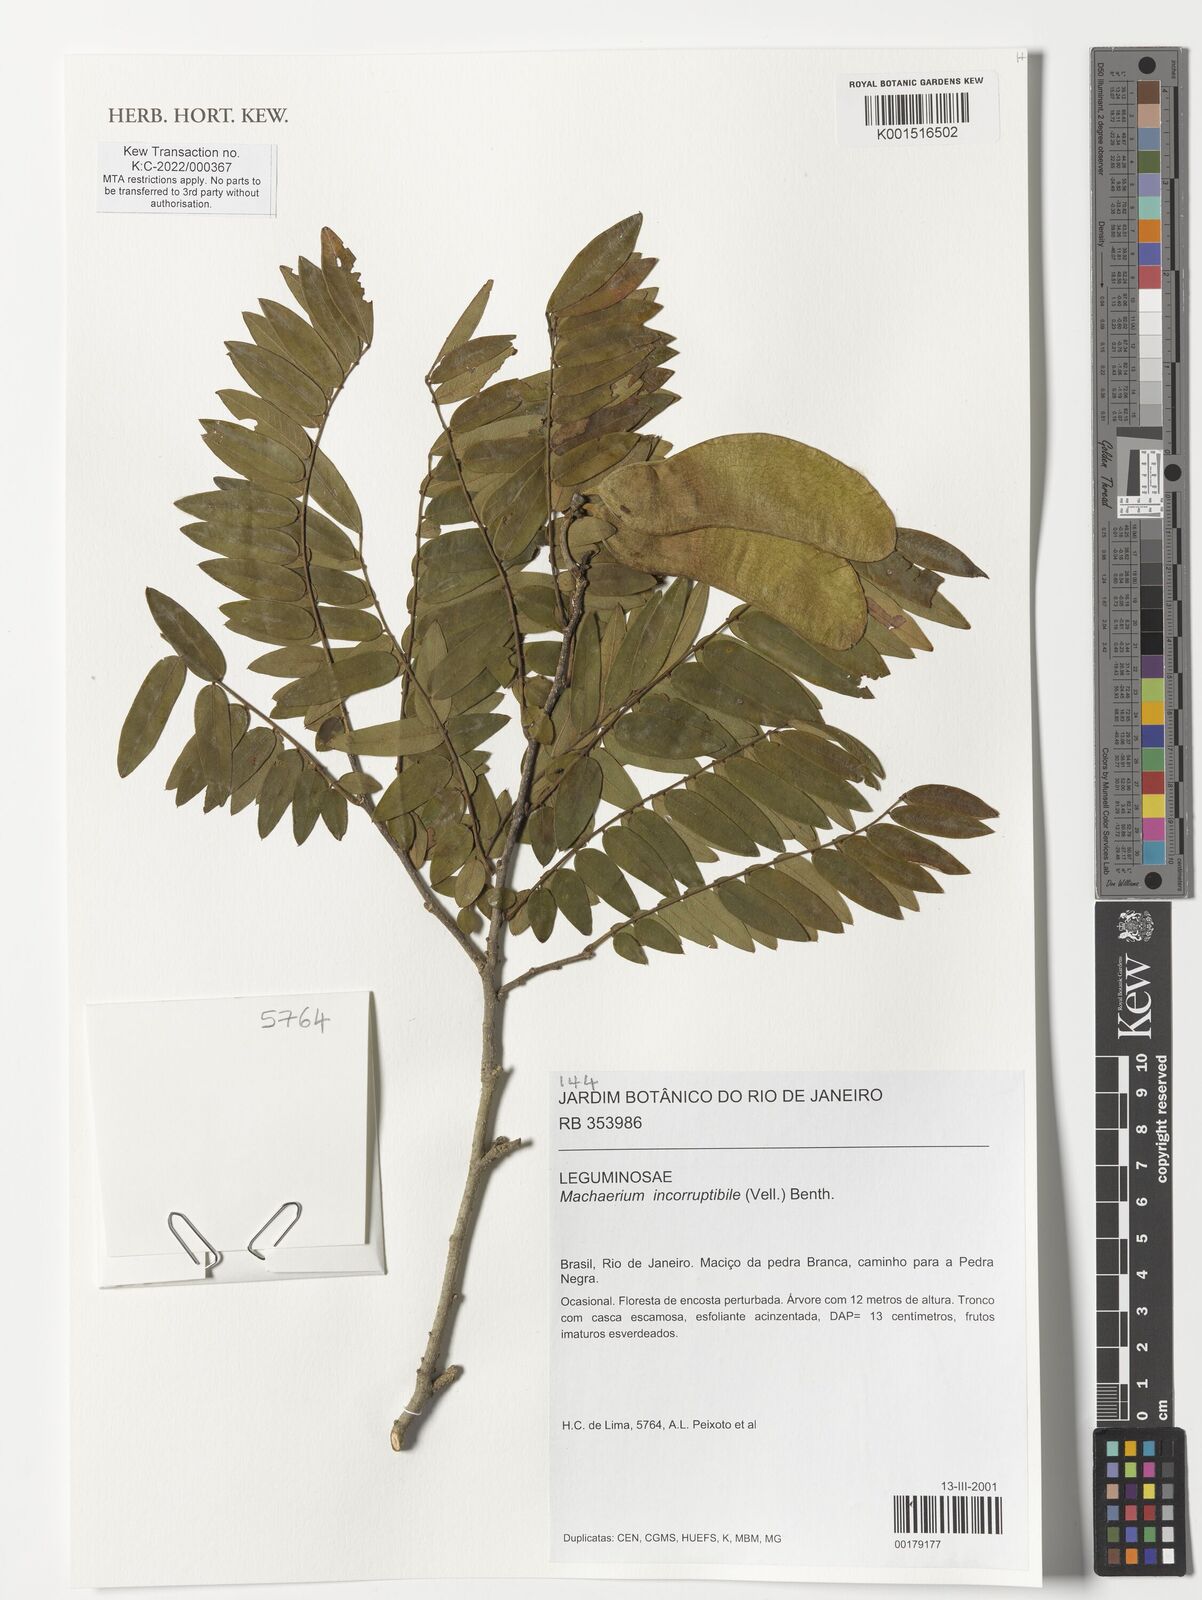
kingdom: Plantae
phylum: Tracheophyta
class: Magnoliopsida
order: Fabales
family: Fabaceae
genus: Machaerium
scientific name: Machaerium incorruptibile
